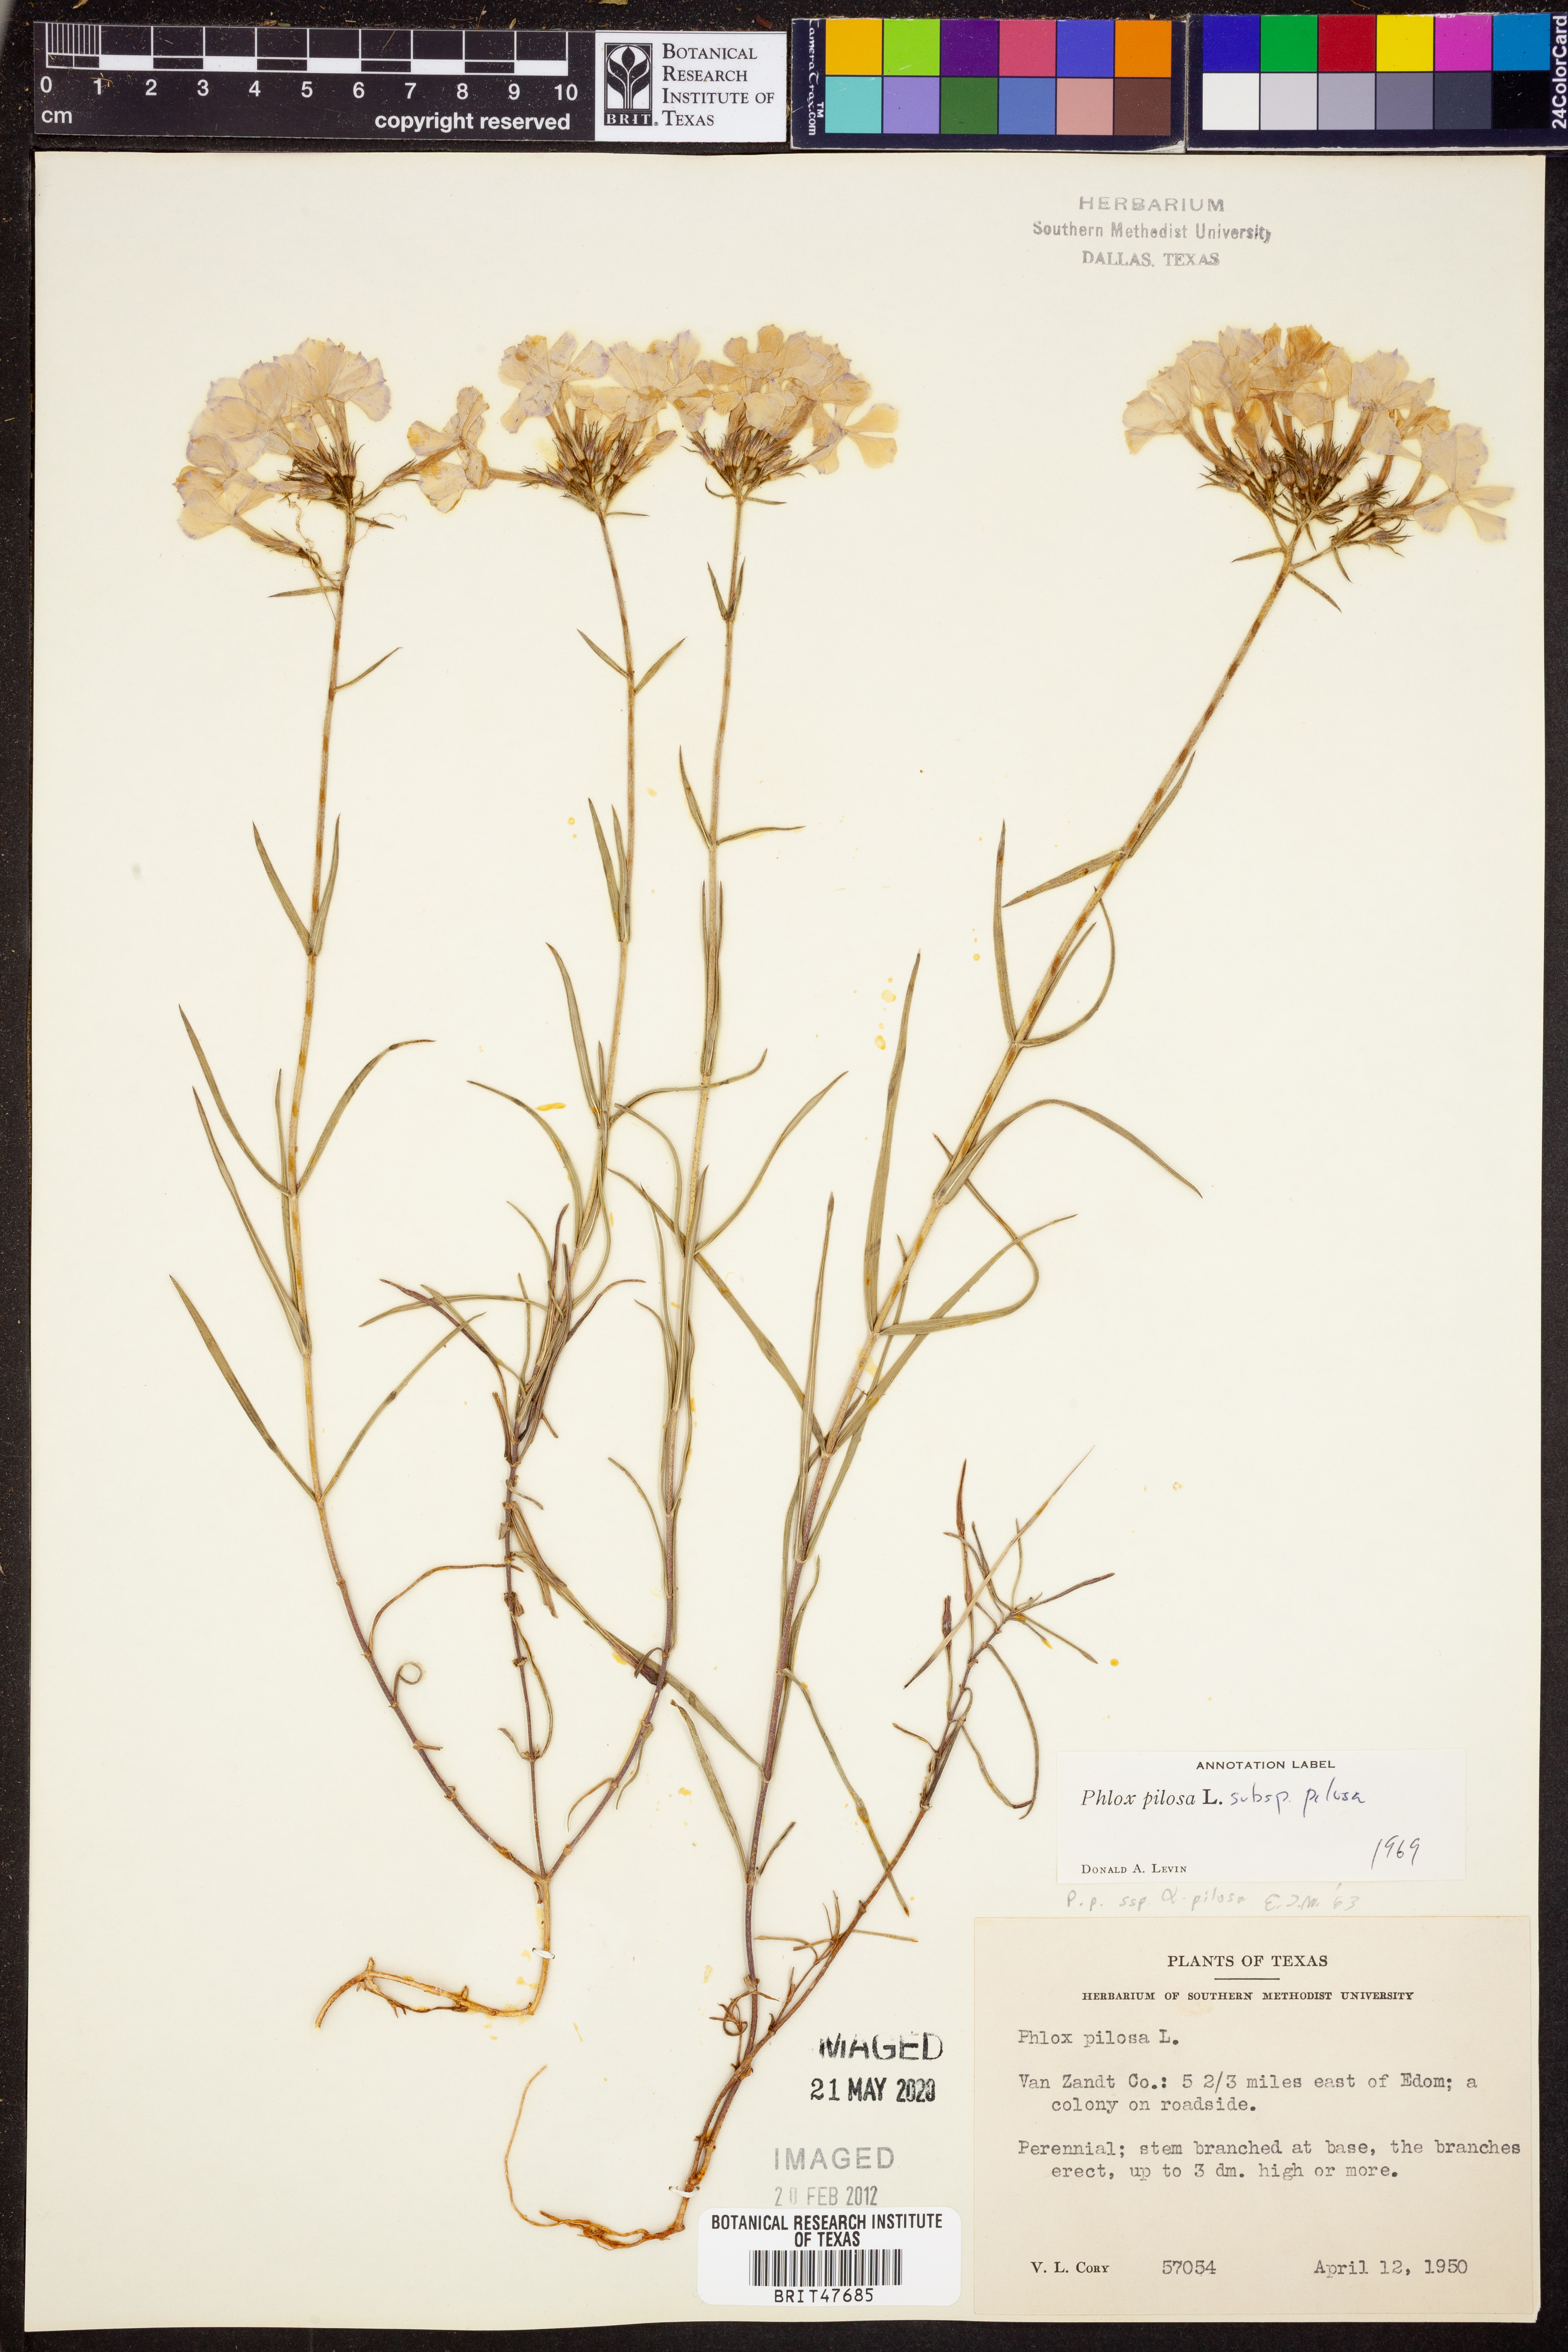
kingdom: Plantae
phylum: Tracheophyta
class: Magnoliopsida
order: Ericales
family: Polemoniaceae
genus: Phlox
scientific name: Phlox pilosa
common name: Prairie phlox
